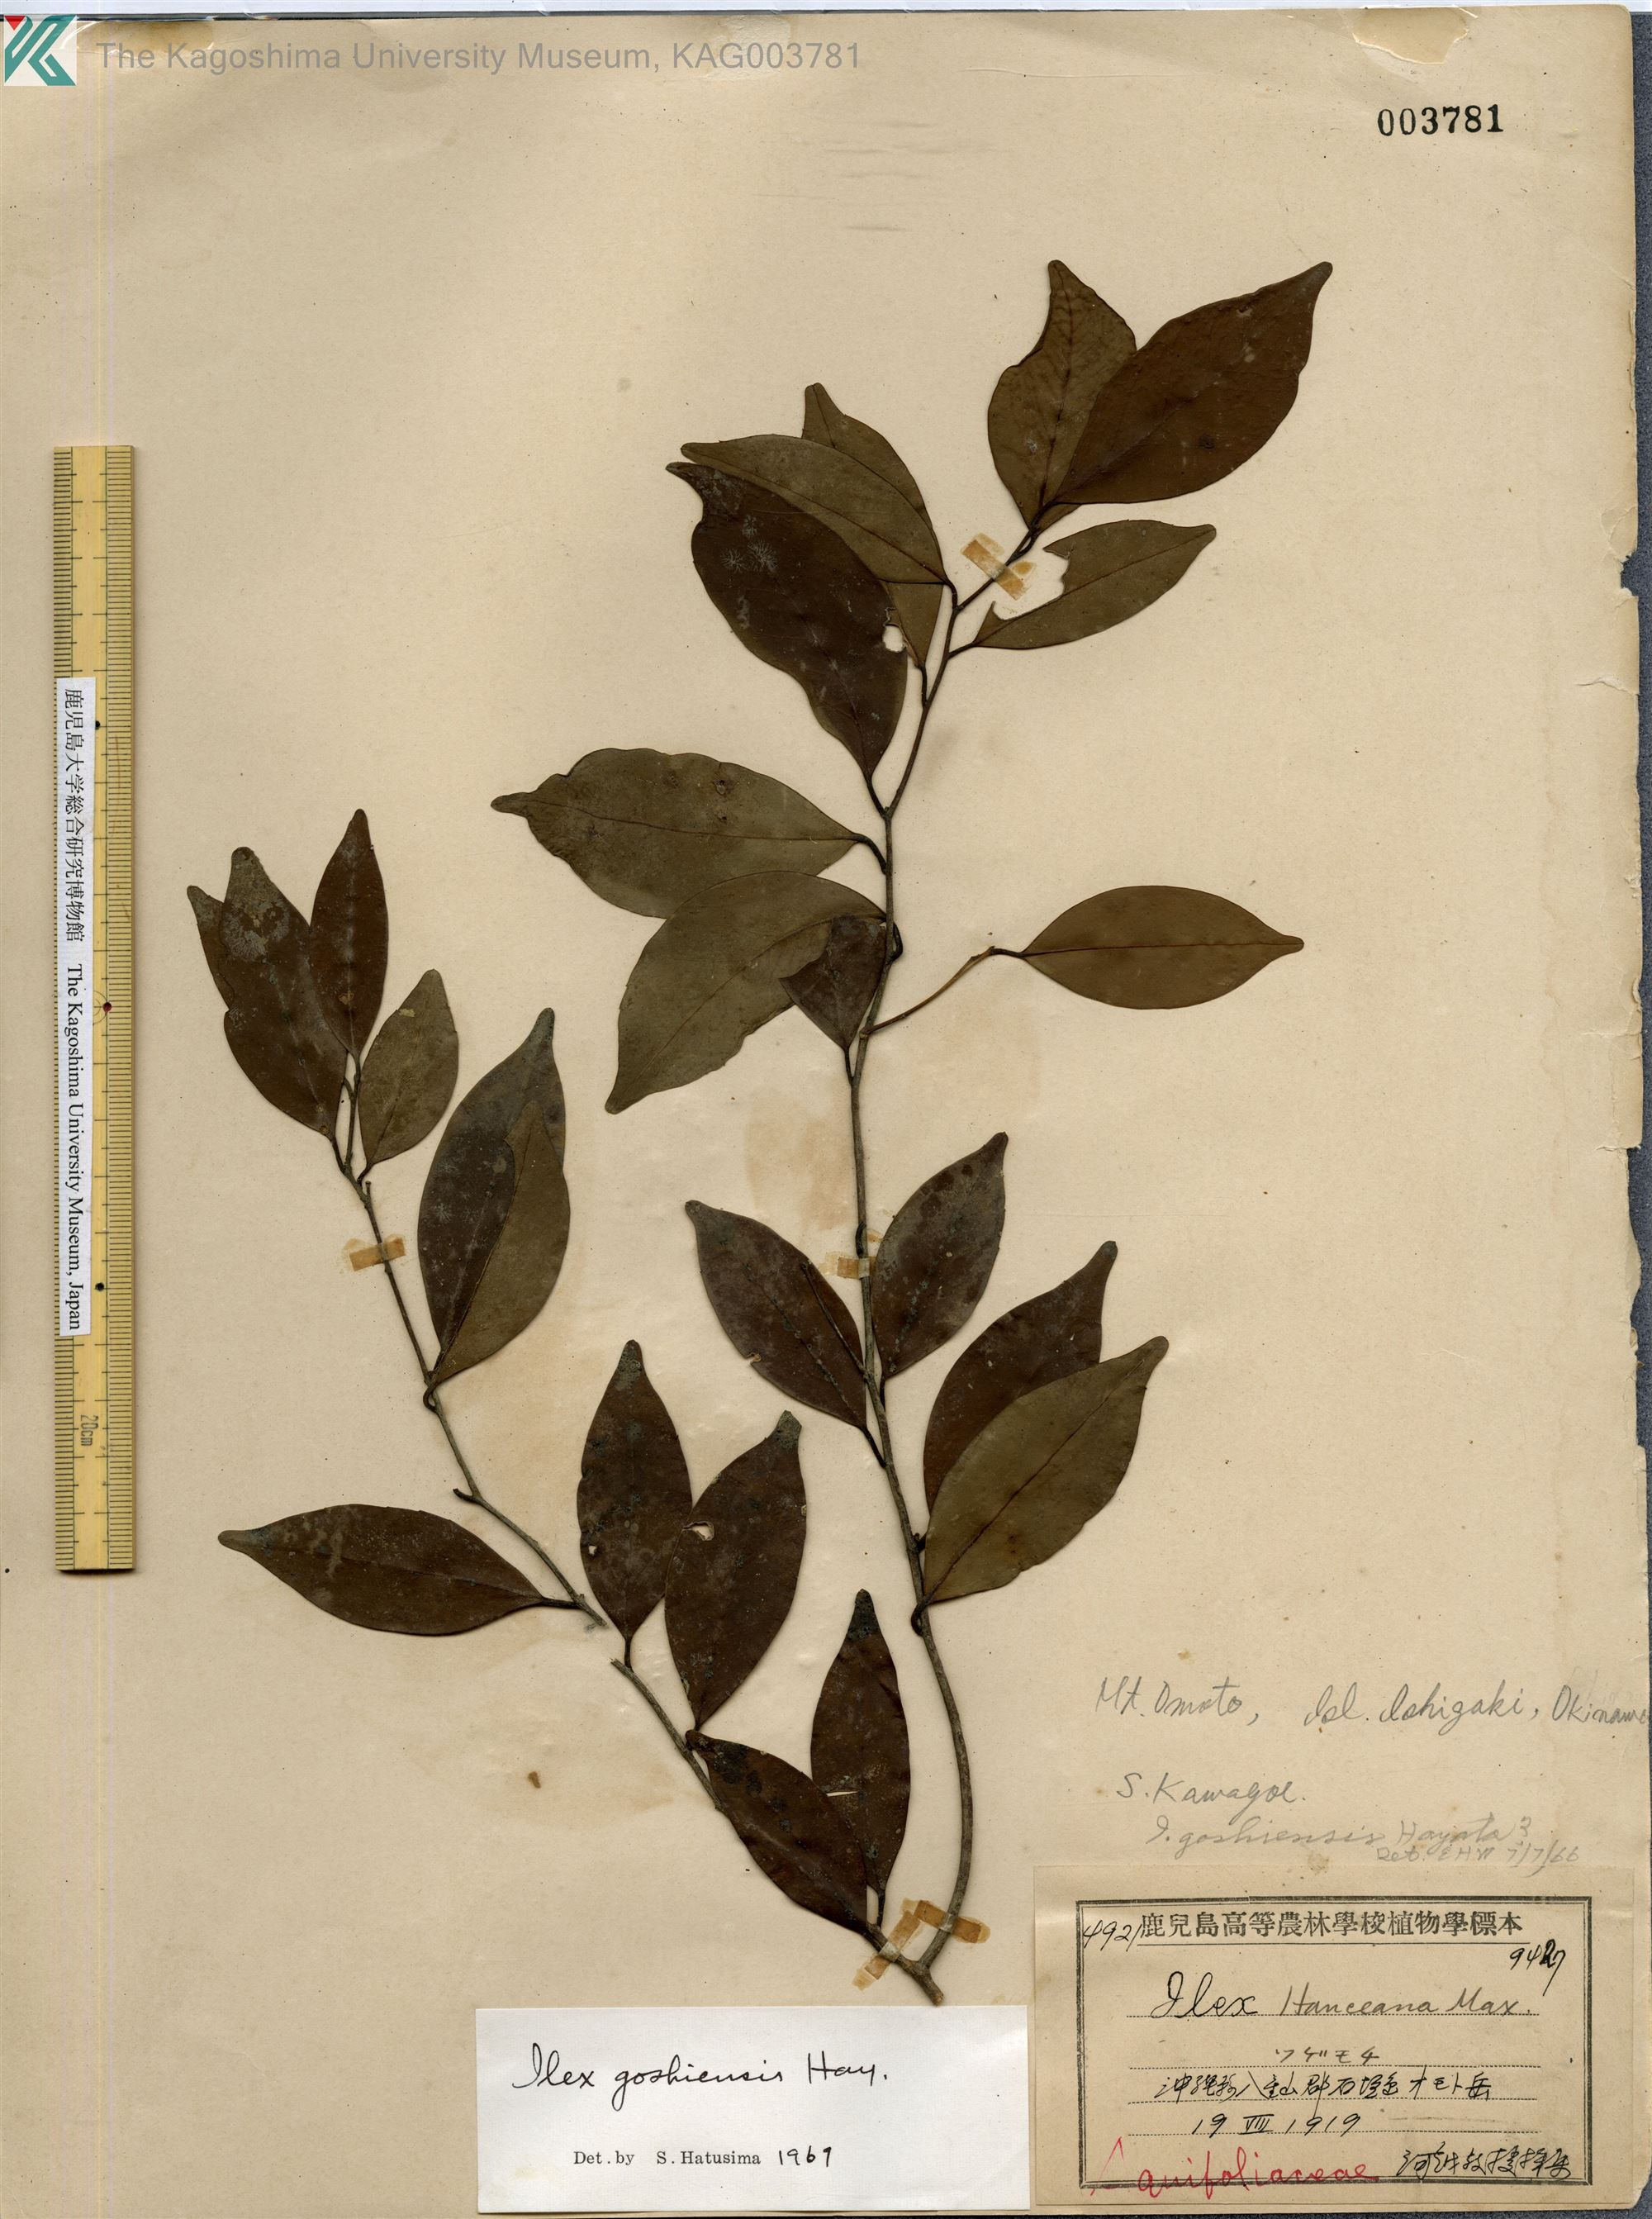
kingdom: Plantae
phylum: Tracheophyta
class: Magnoliopsida
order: Aquifoliales
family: Aquifoliaceae
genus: Ilex
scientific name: Ilex goshiensis
